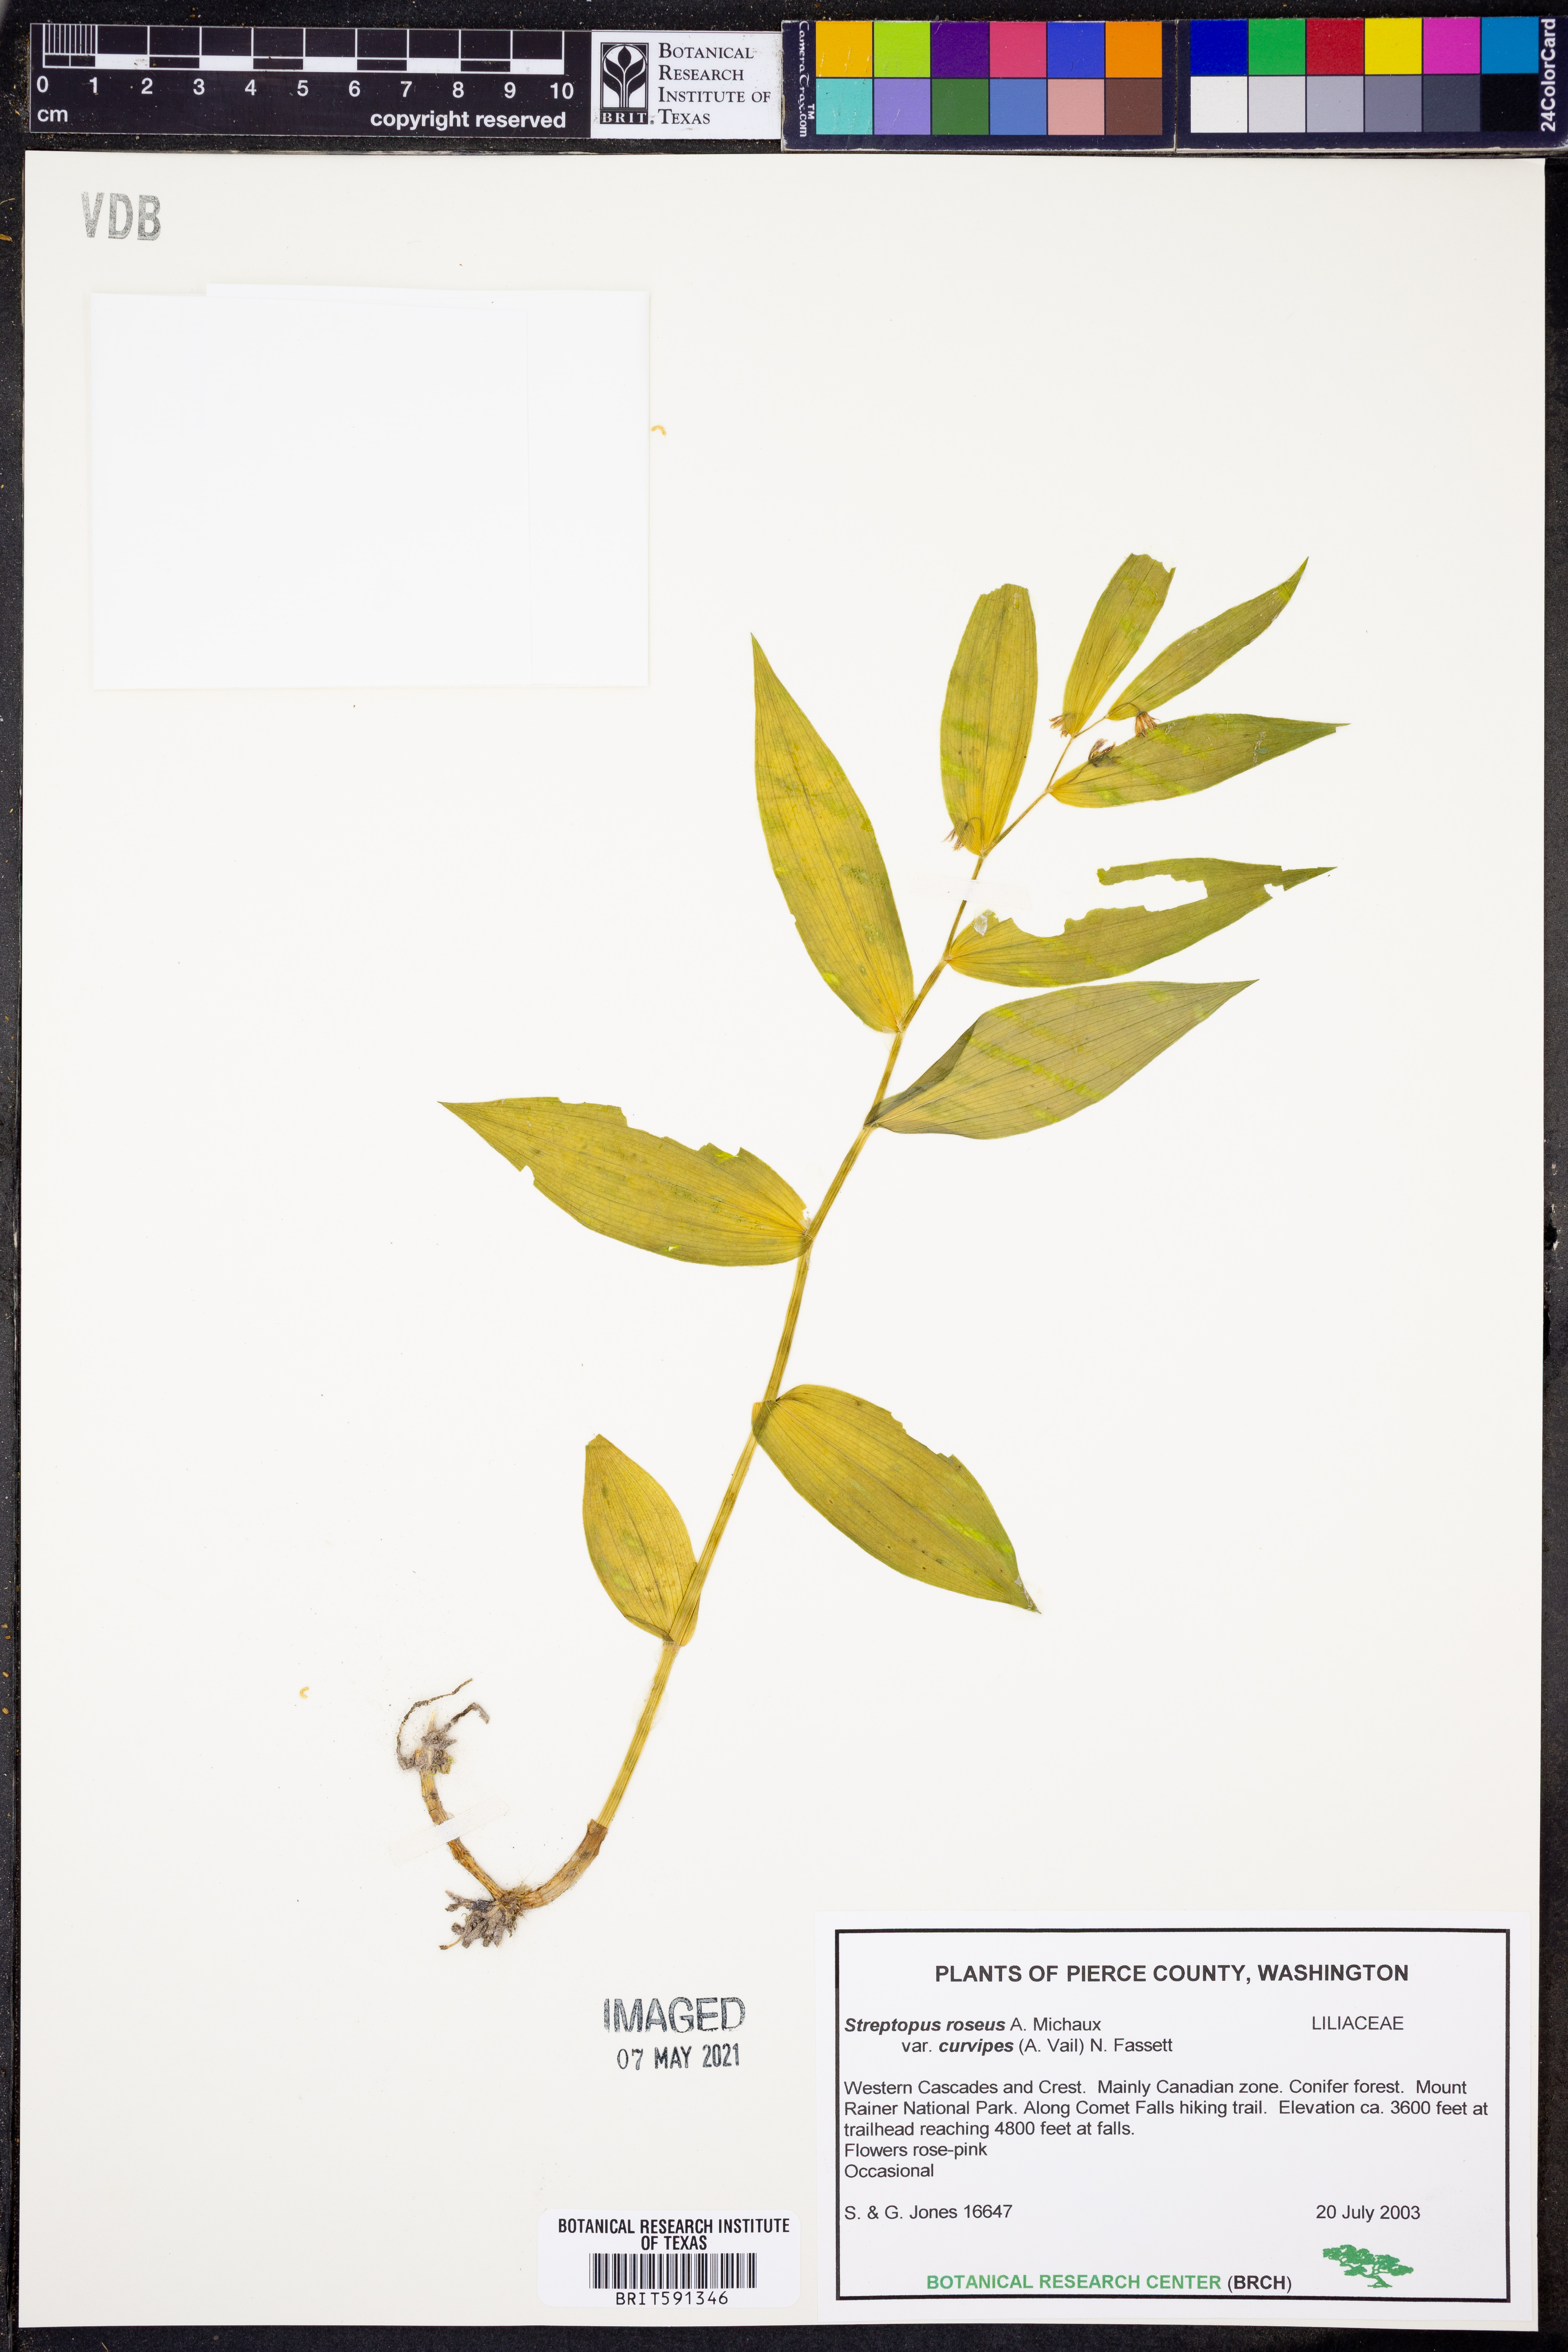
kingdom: Plantae
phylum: Tracheophyta
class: Liliopsida
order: Liliales
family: Liliaceae
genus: Streptopus
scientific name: Streptopus lanceolatus
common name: Rose mandarin
